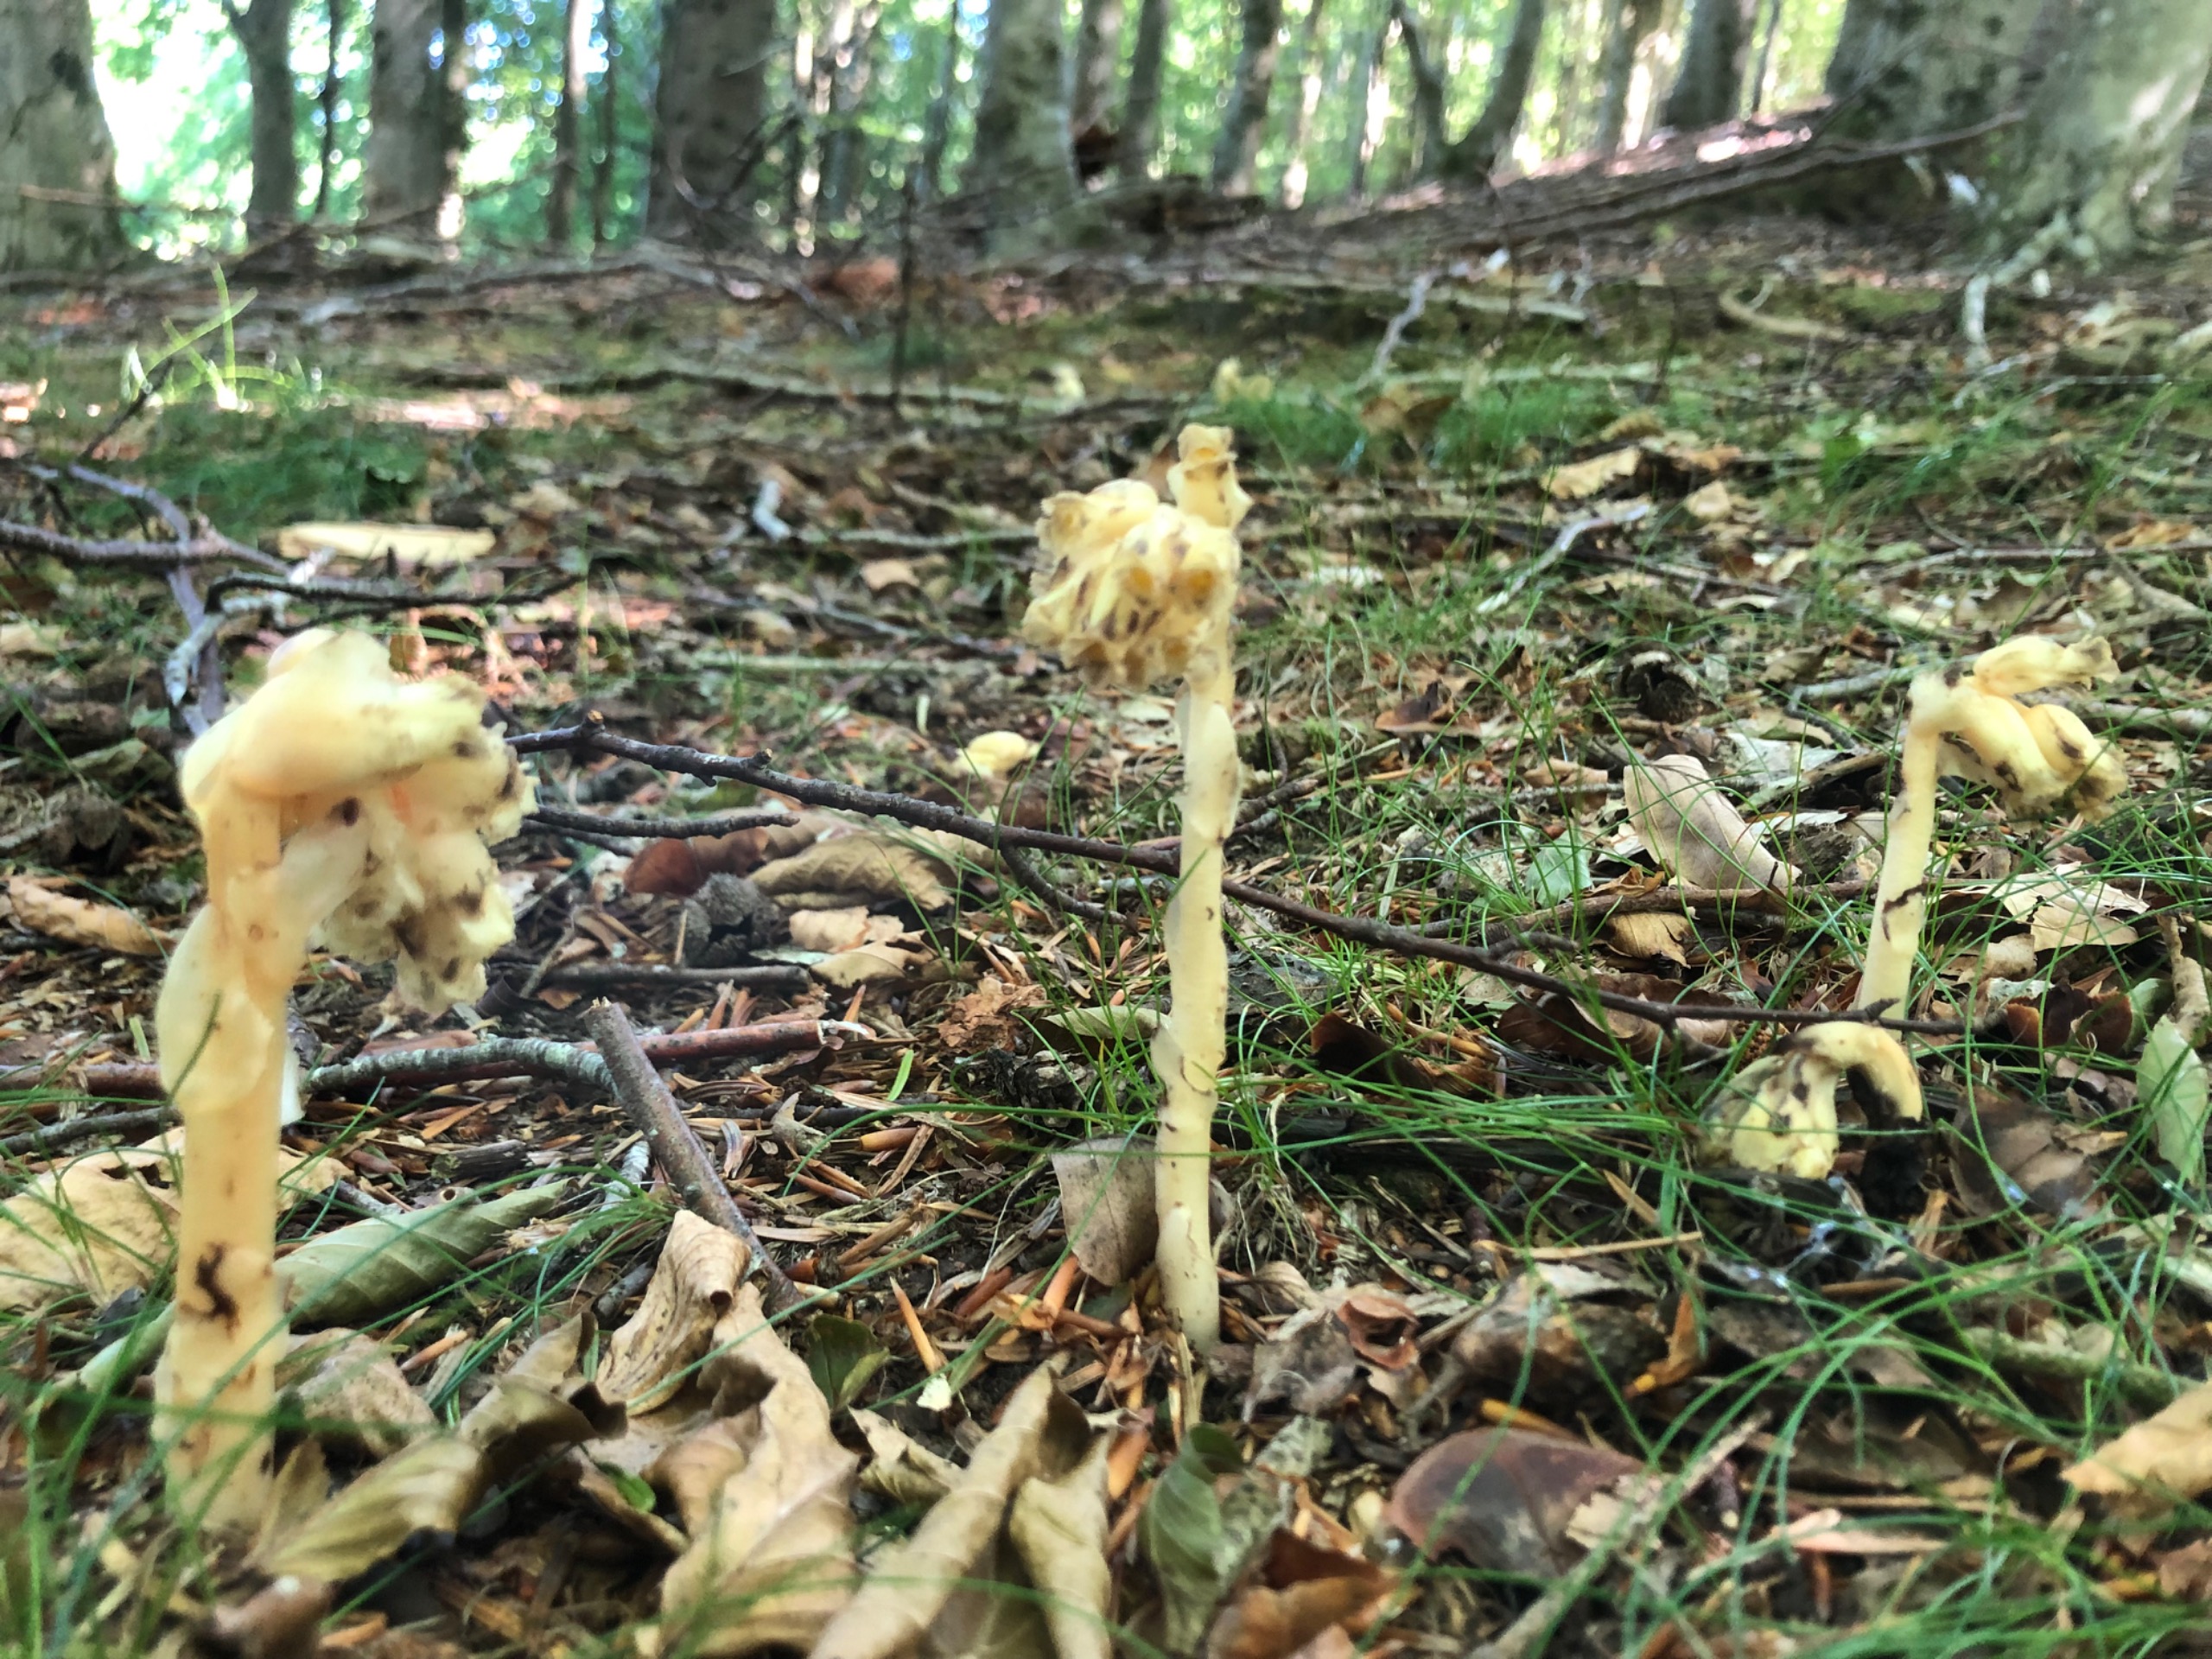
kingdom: Plantae
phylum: Tracheophyta
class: Magnoliopsida
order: Ericales
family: Ericaceae
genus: Hypopitys
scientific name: Hypopitys monotropa
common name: Snylterod
